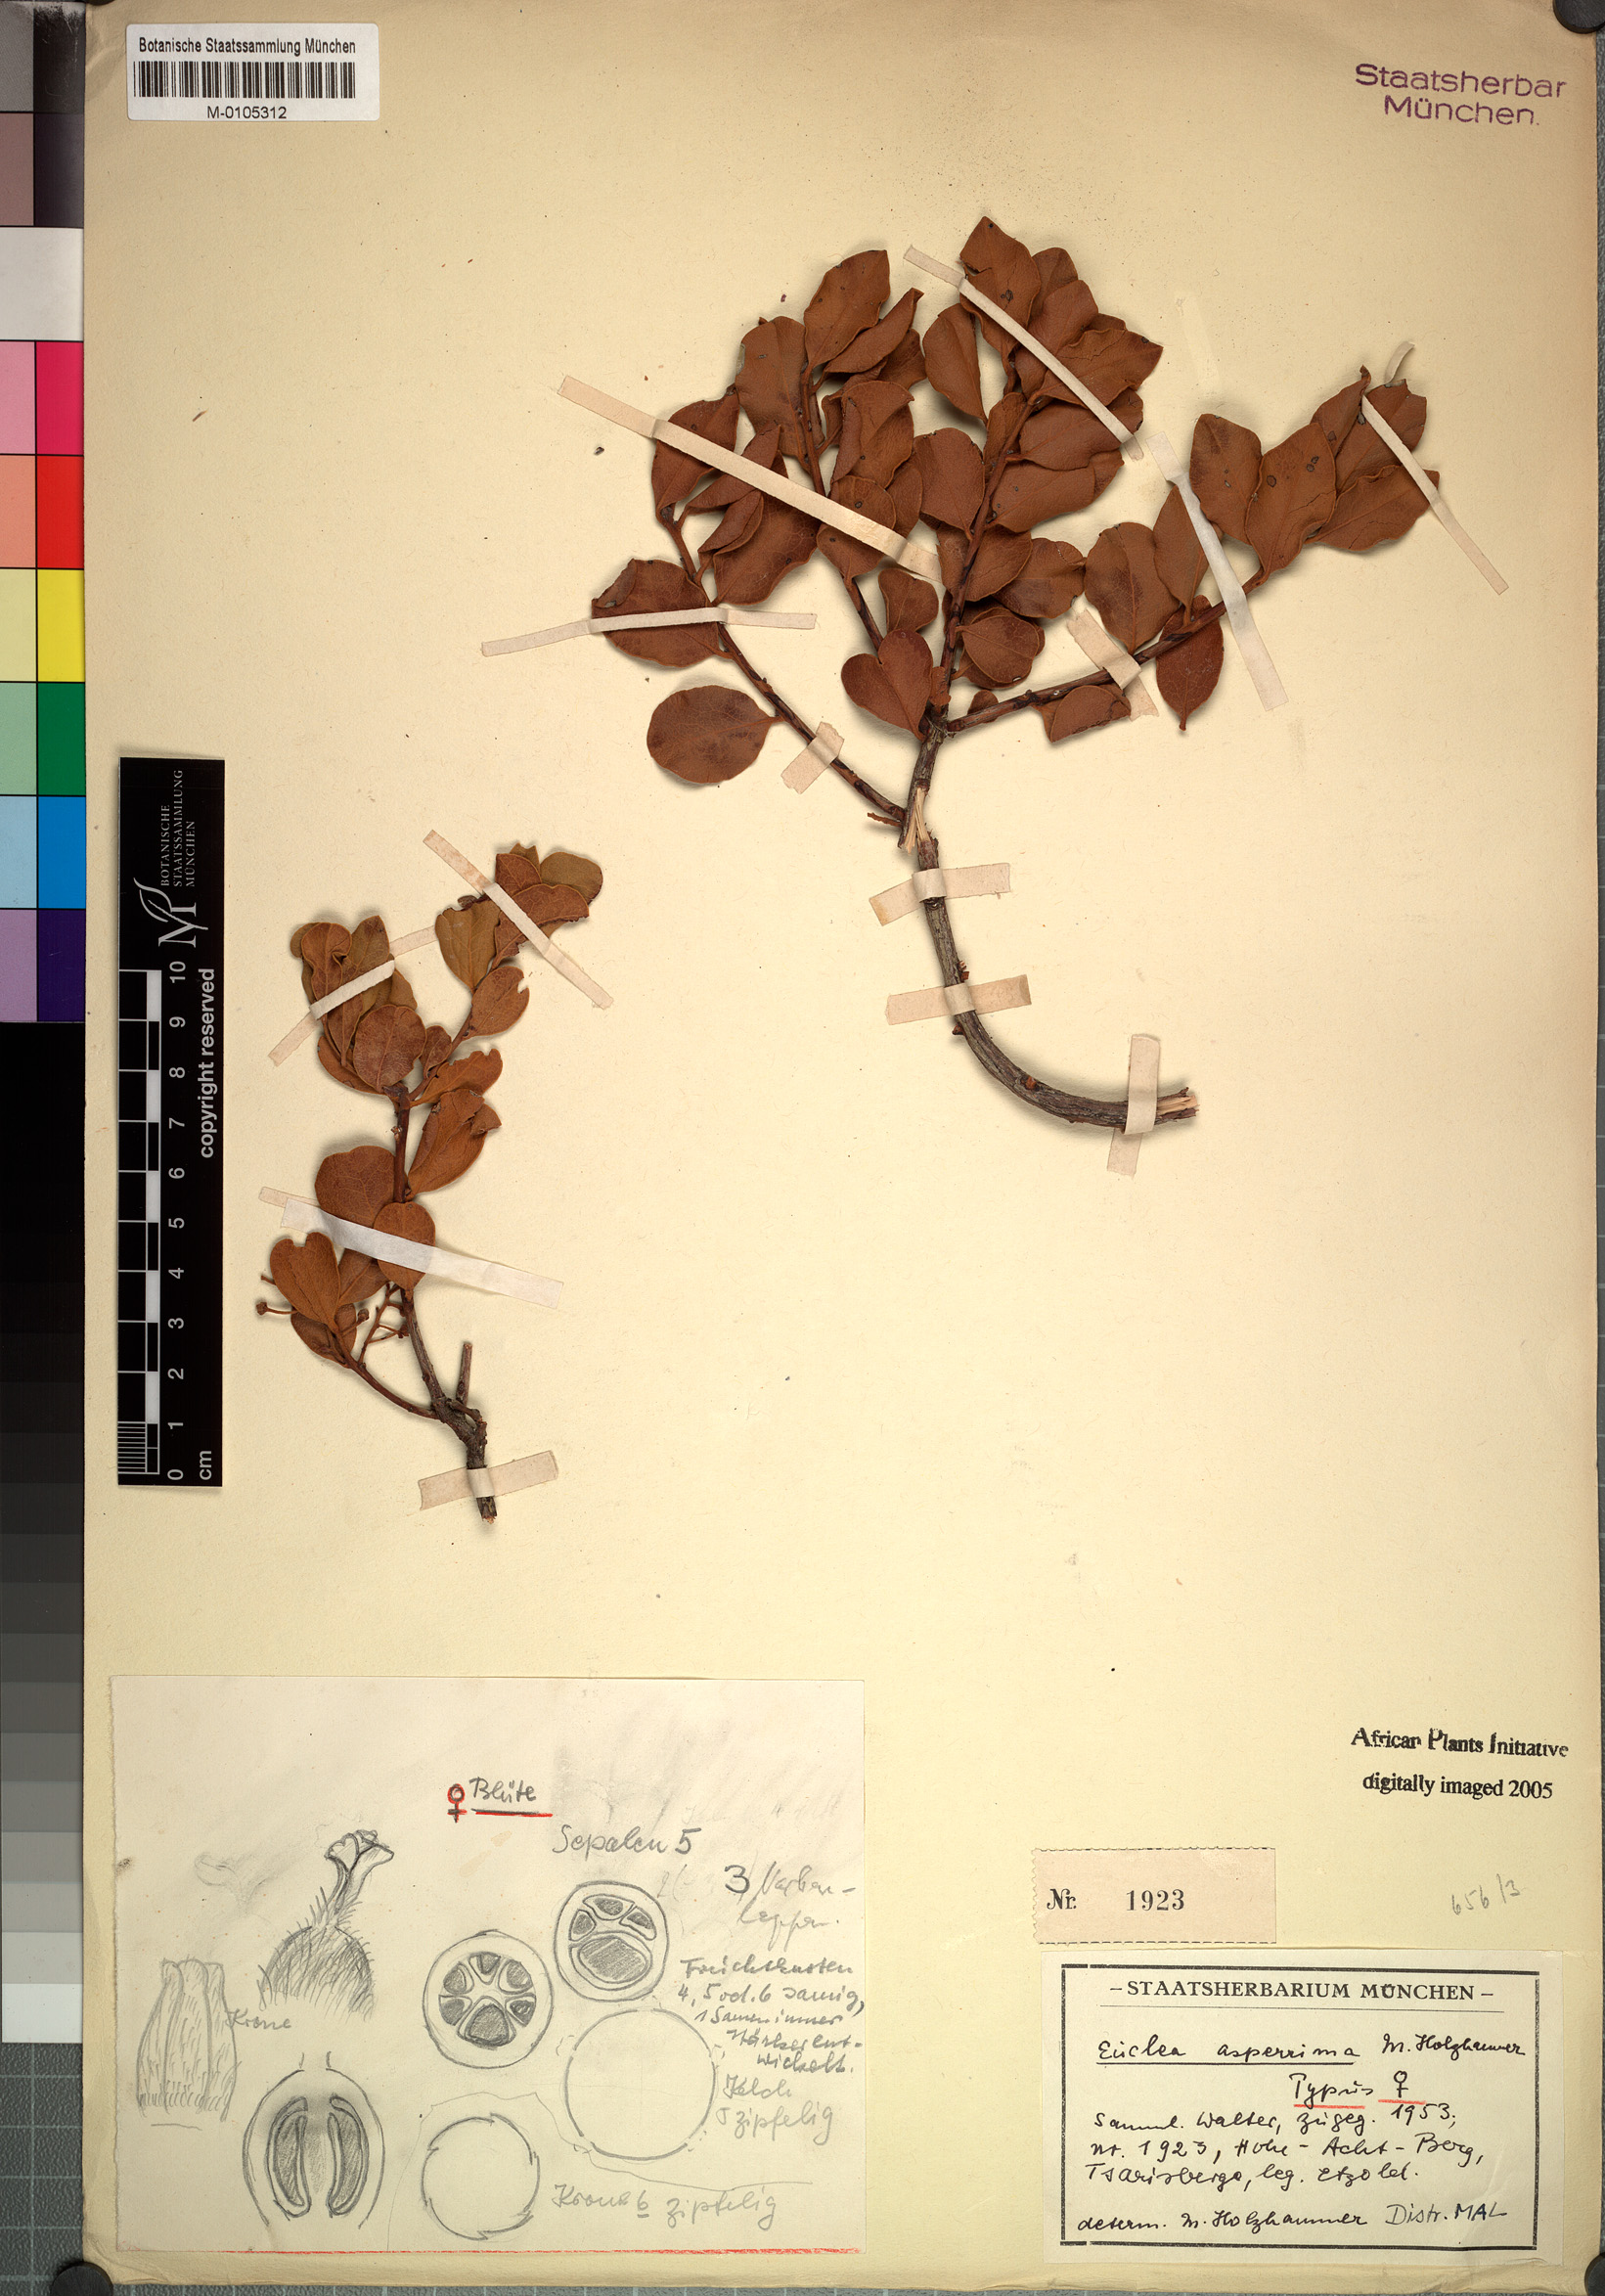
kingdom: Plantae
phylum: Tracheophyta
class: Magnoliopsida
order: Ericales
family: Ebenaceae
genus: Euclea
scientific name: Euclea asperrima
